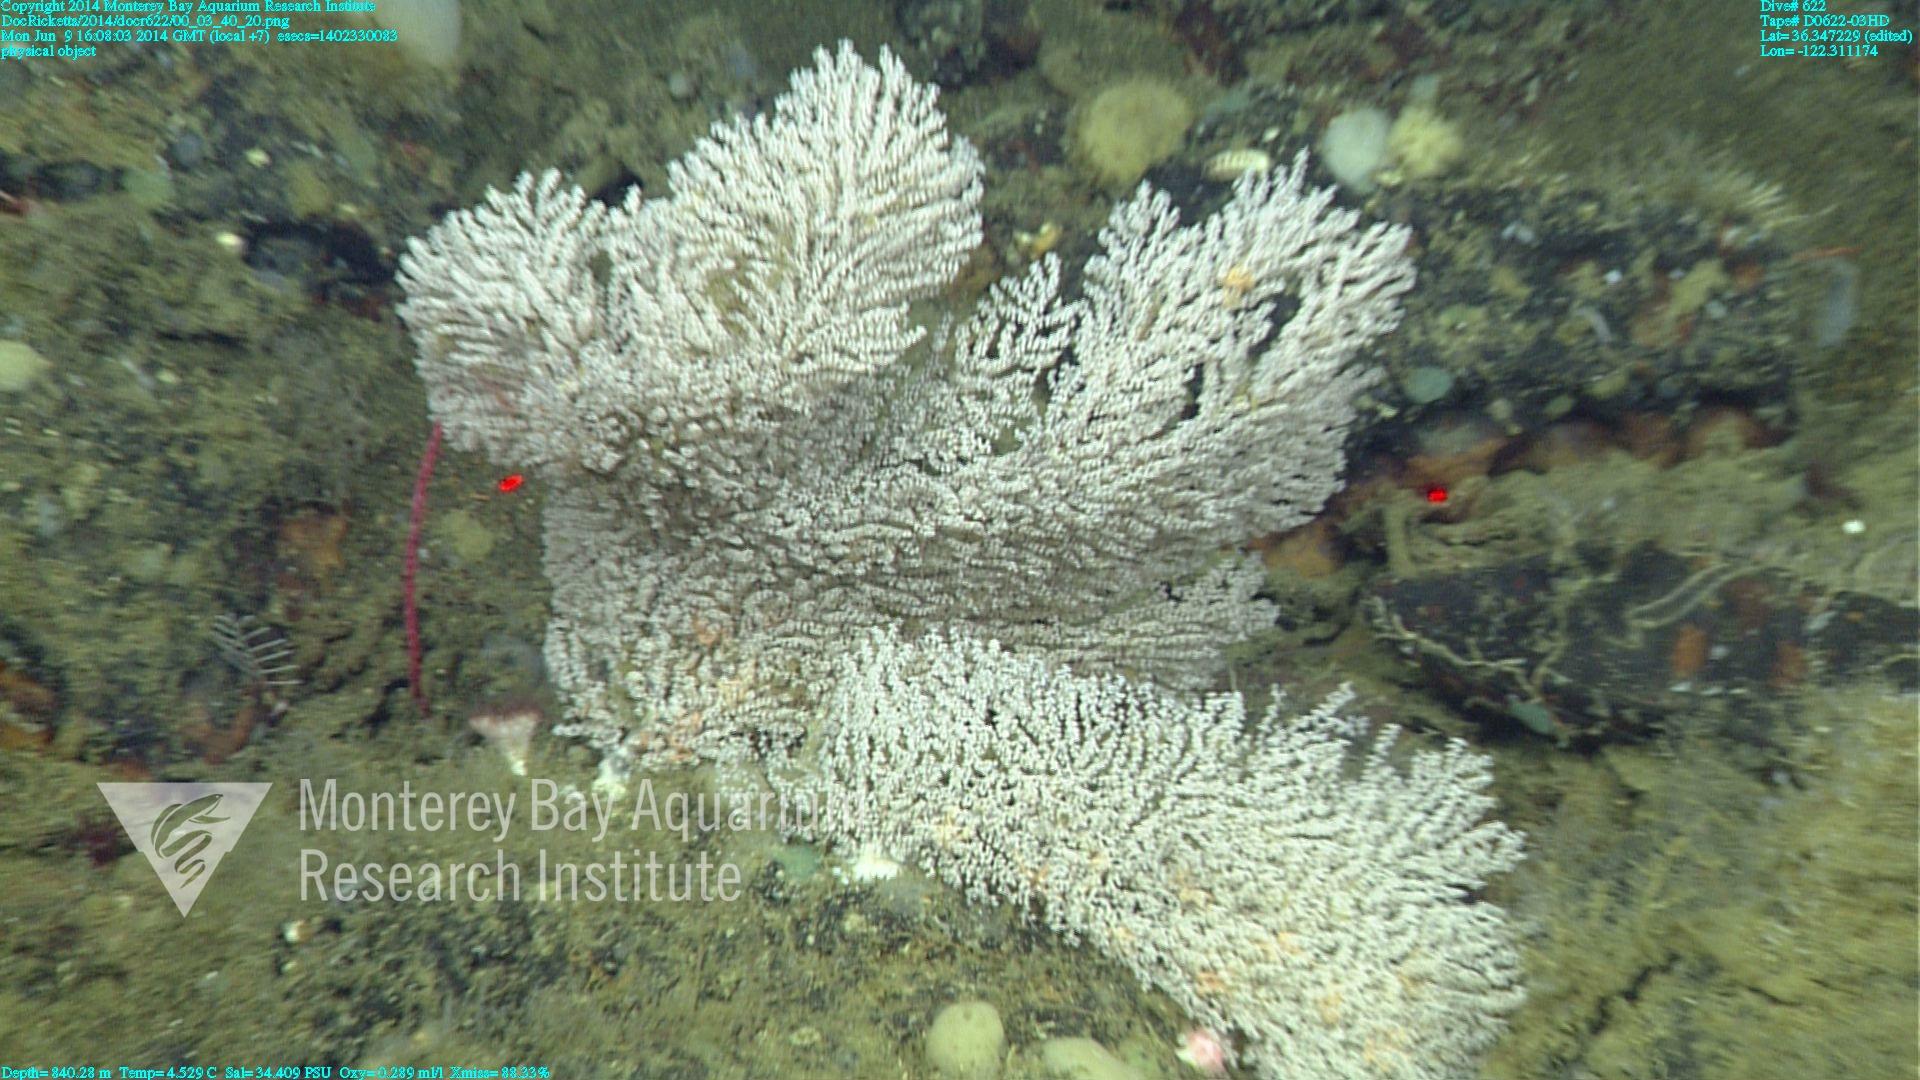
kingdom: Animalia
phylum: Cnidaria
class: Anthozoa
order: Scleralcyonacea
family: Primnoidae
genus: Parastenella
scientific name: Parastenella
